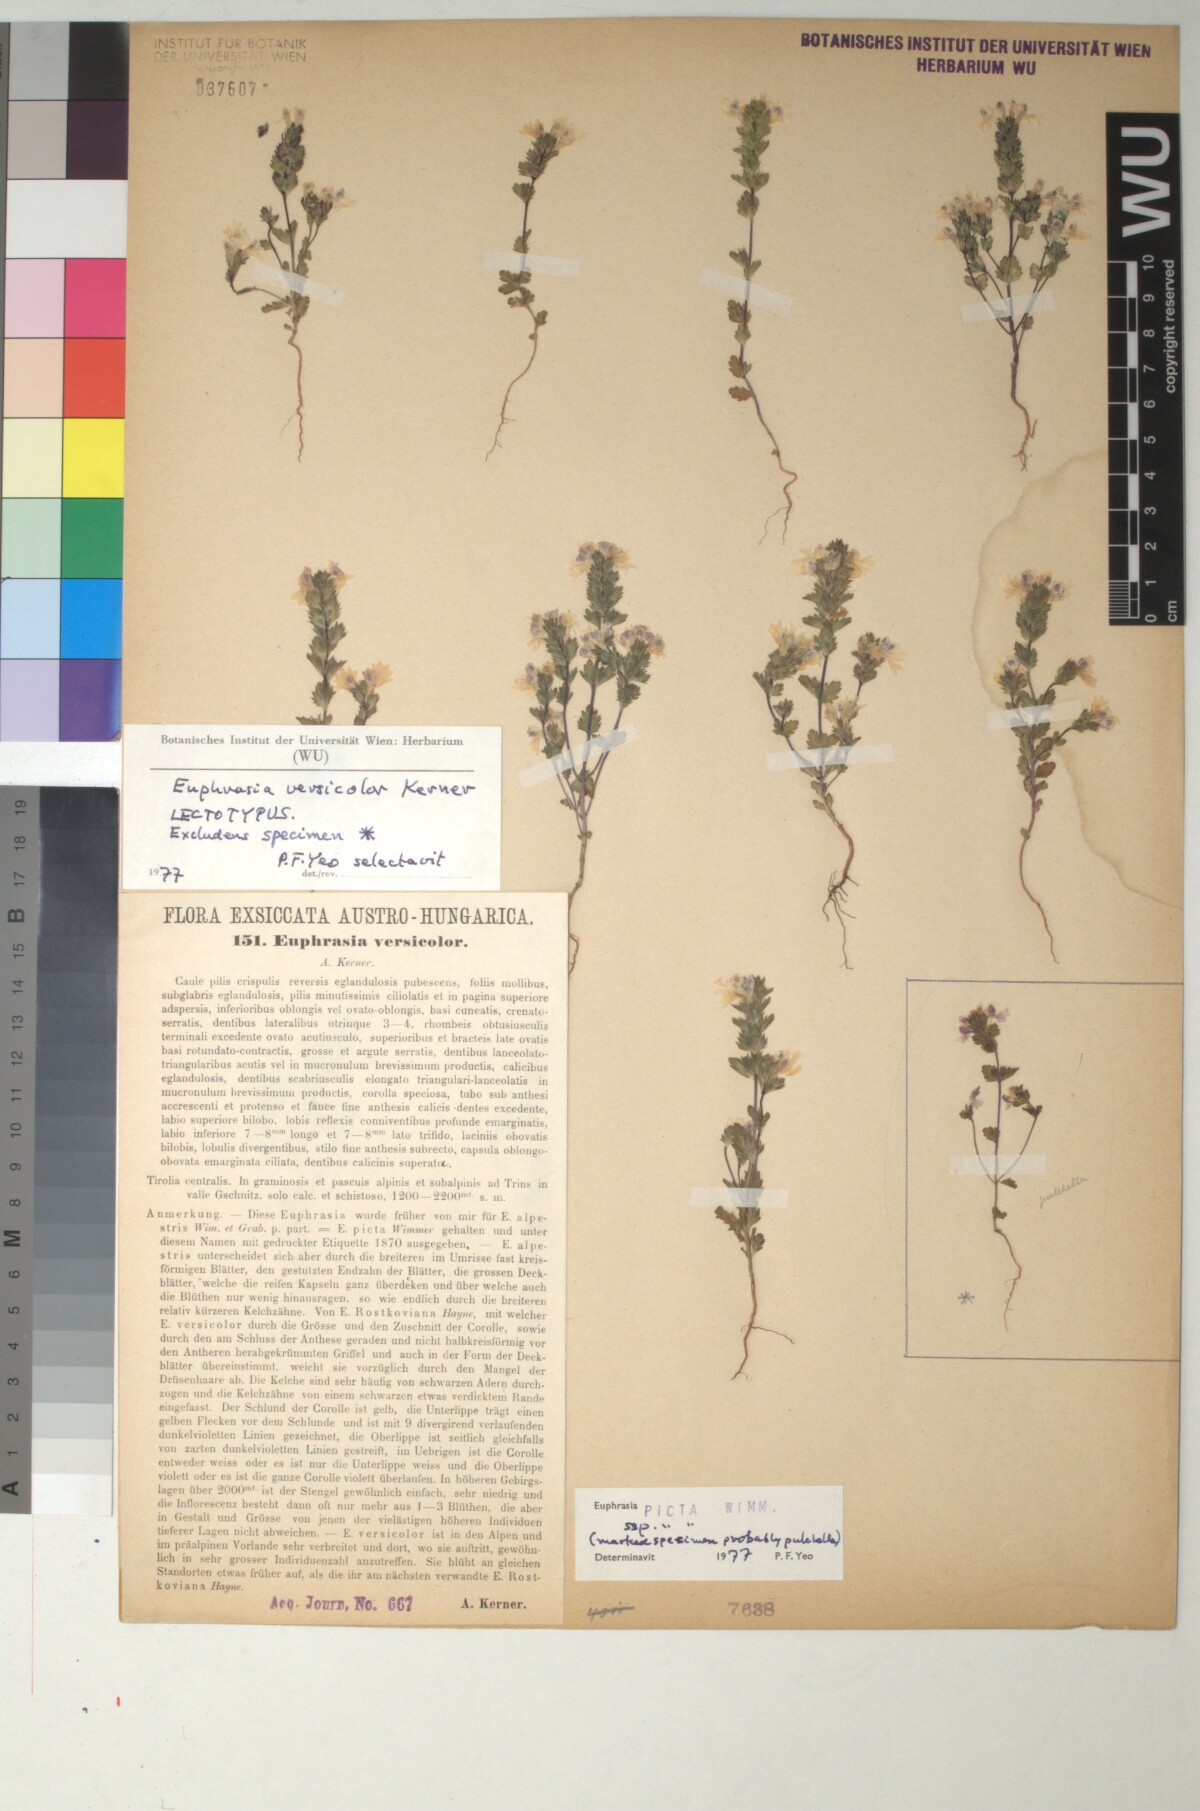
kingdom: Plantae
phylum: Tracheophyta
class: Magnoliopsida
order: Lamiales
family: Orobanchaceae
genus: Euphrasia
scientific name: Euphrasia picta
